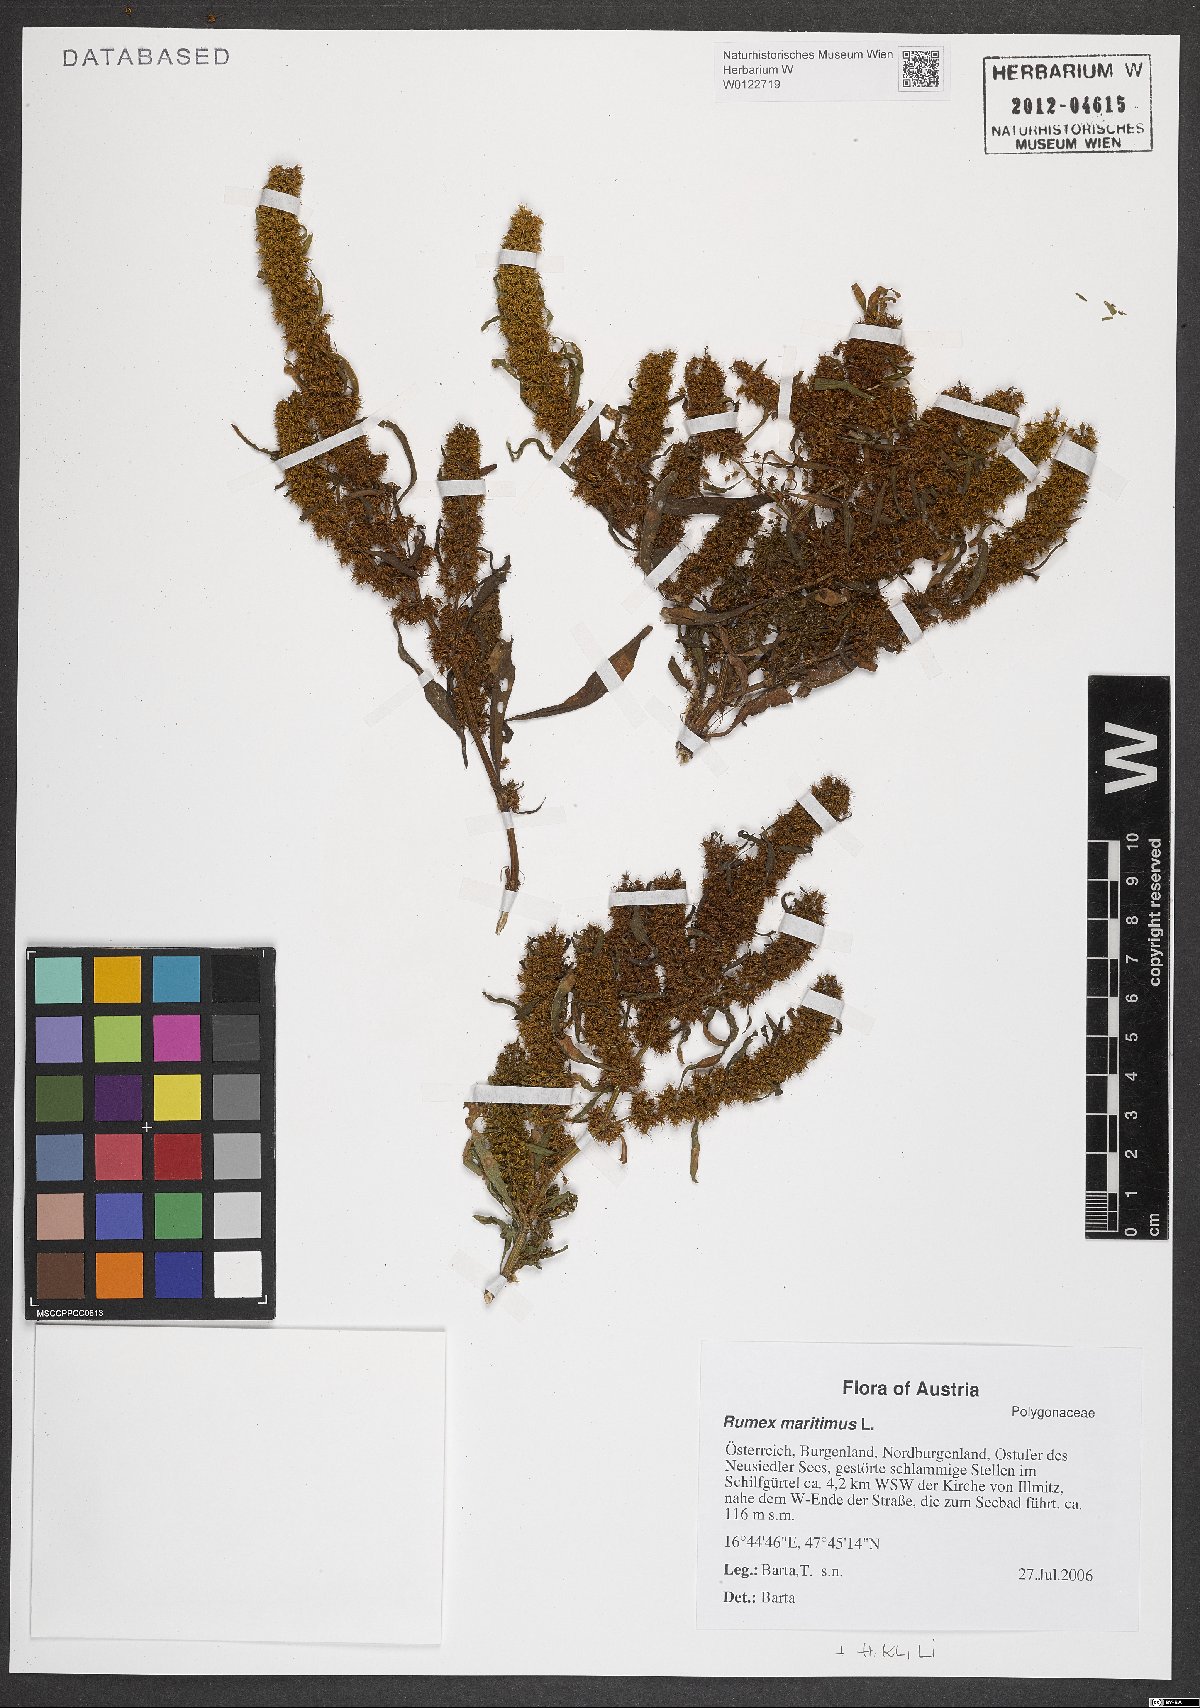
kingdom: Plantae
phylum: Tracheophyta
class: Magnoliopsida
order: Caryophyllales
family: Polygonaceae
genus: Rumex
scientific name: Rumex maritimus
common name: Golden dock
